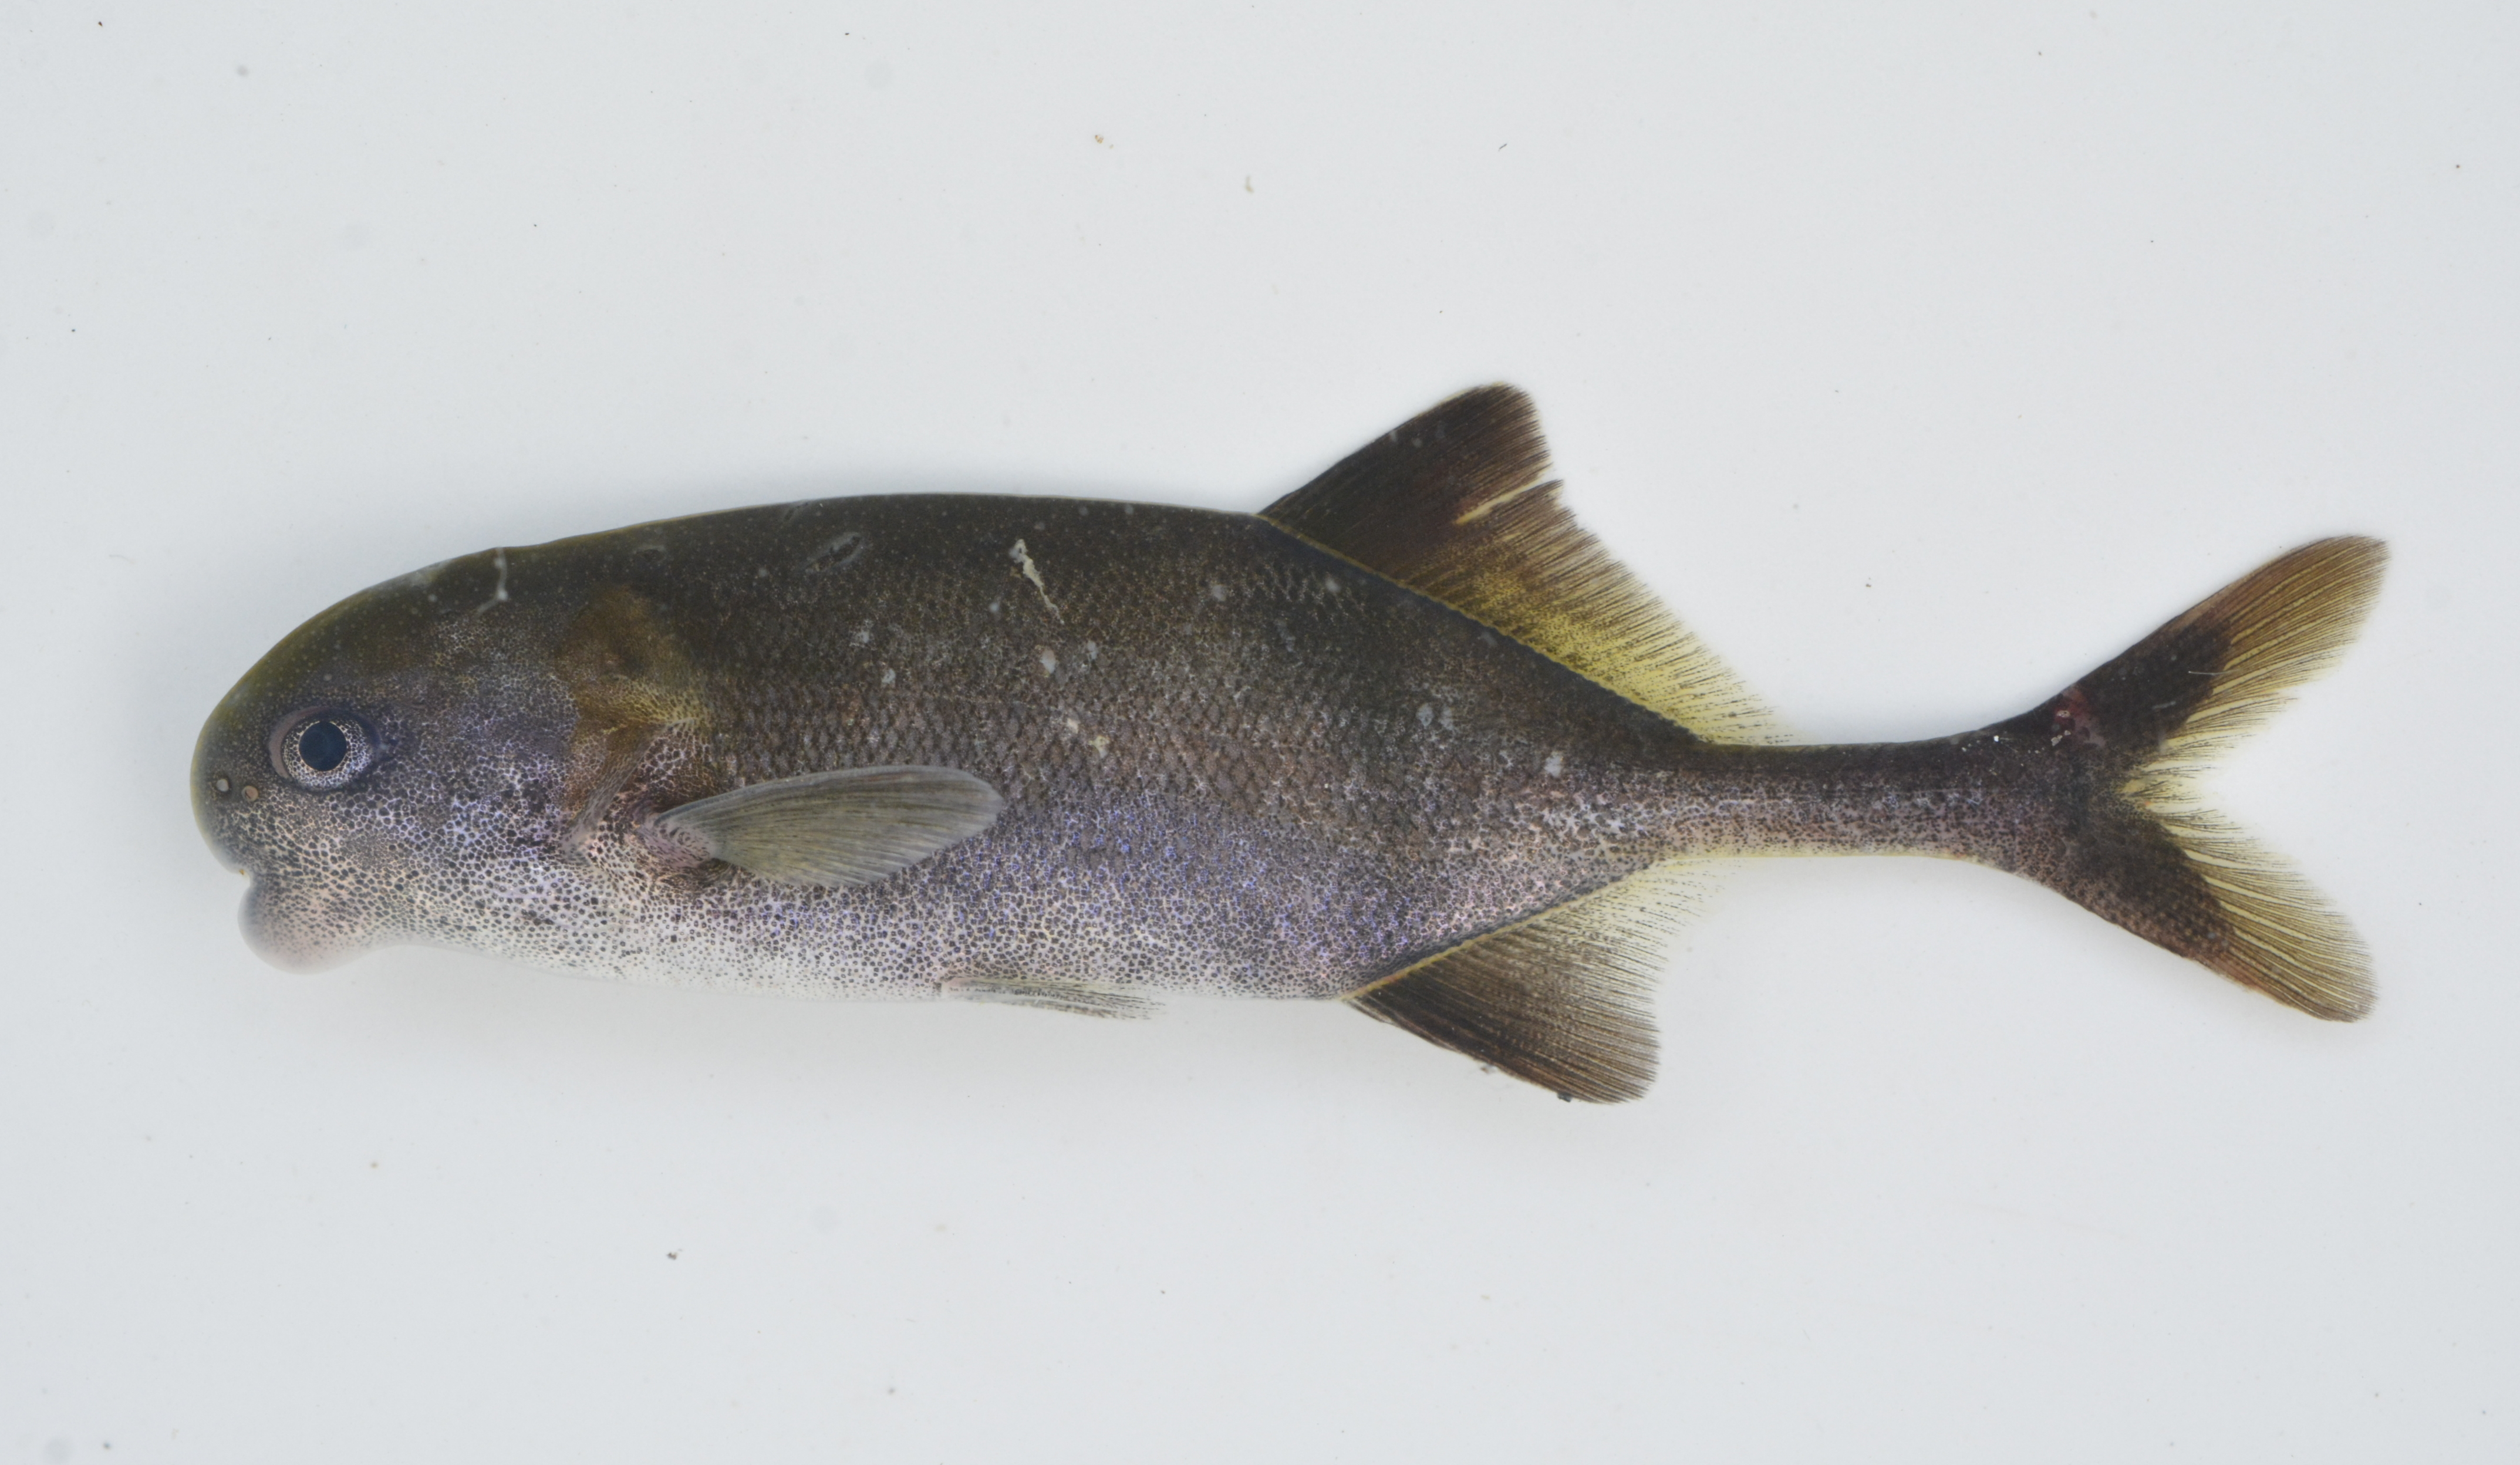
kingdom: Animalia
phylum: Chordata
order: Osteoglossiformes
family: Mormyridae
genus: Marcusenius
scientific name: Marcusenius
